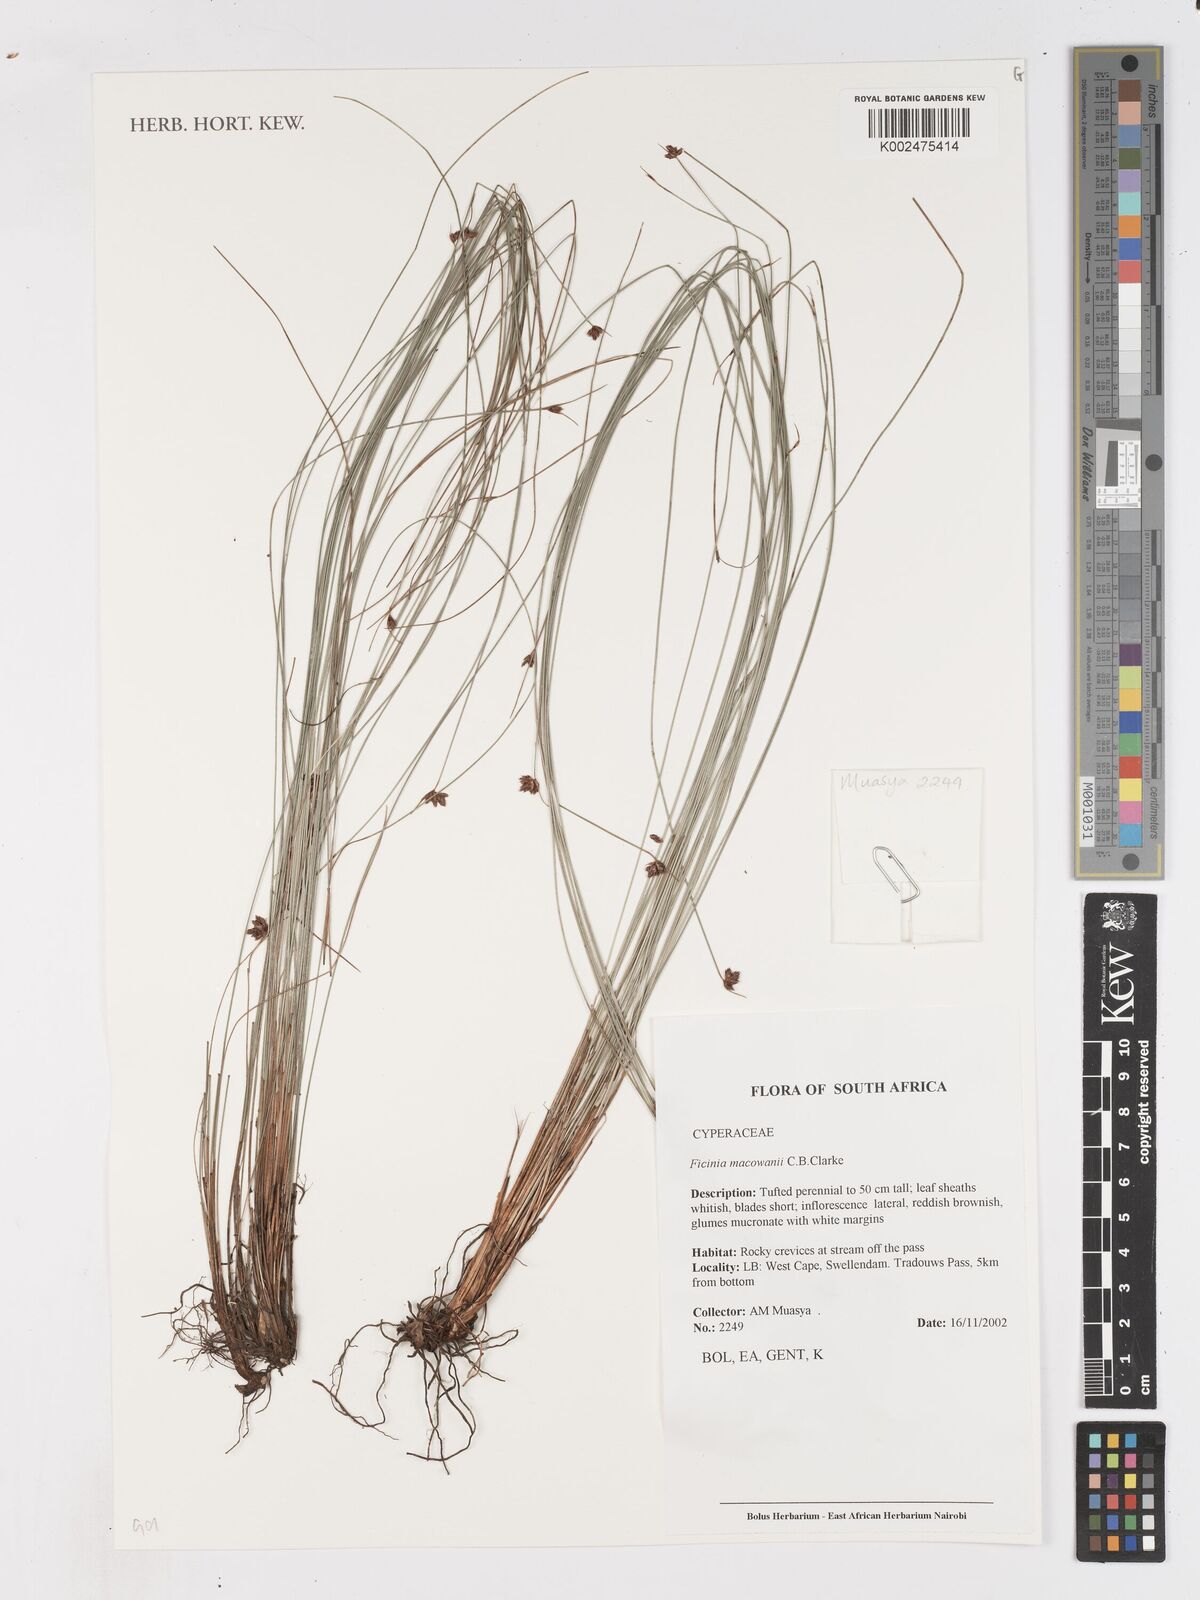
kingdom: Plantae
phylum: Tracheophyta
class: Liliopsida
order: Poales
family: Cyperaceae
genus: Ficinia
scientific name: Ficinia acuminata
